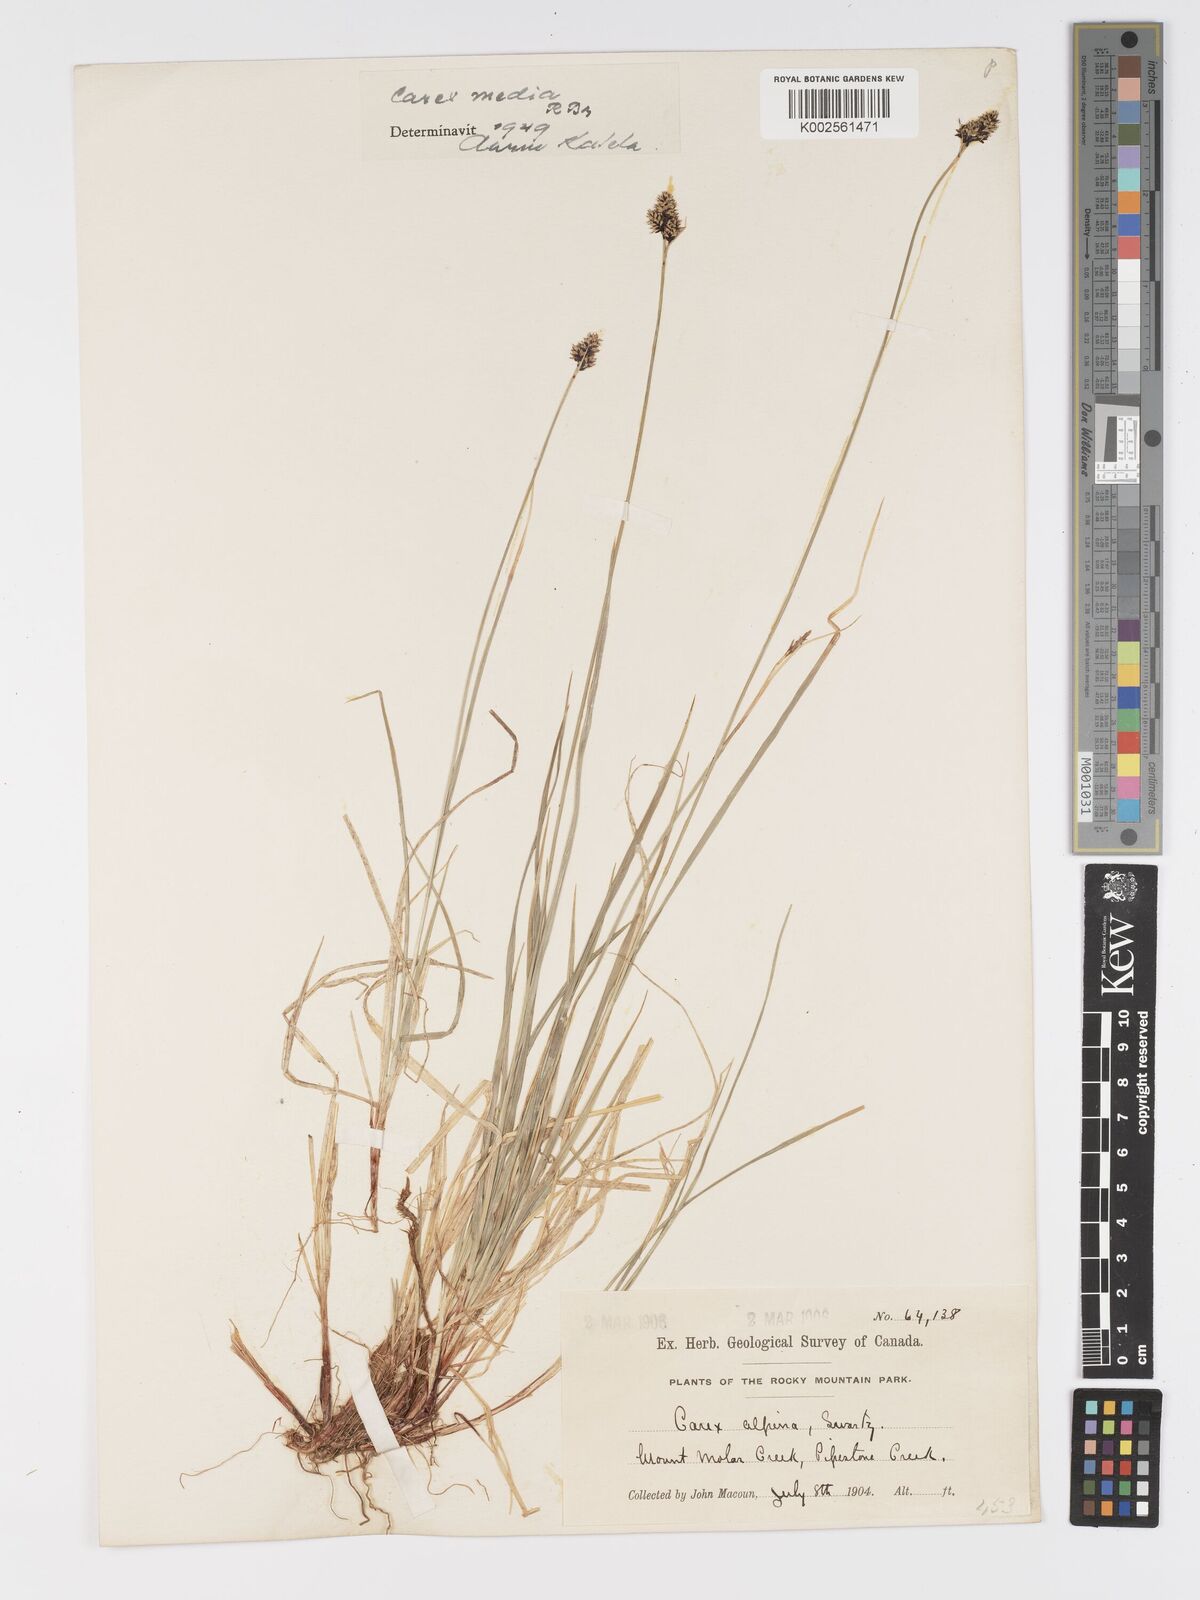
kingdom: Plantae
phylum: Tracheophyta
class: Liliopsida
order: Poales
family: Cyperaceae
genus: Carex
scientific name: Carex media
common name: Alpine sedge
